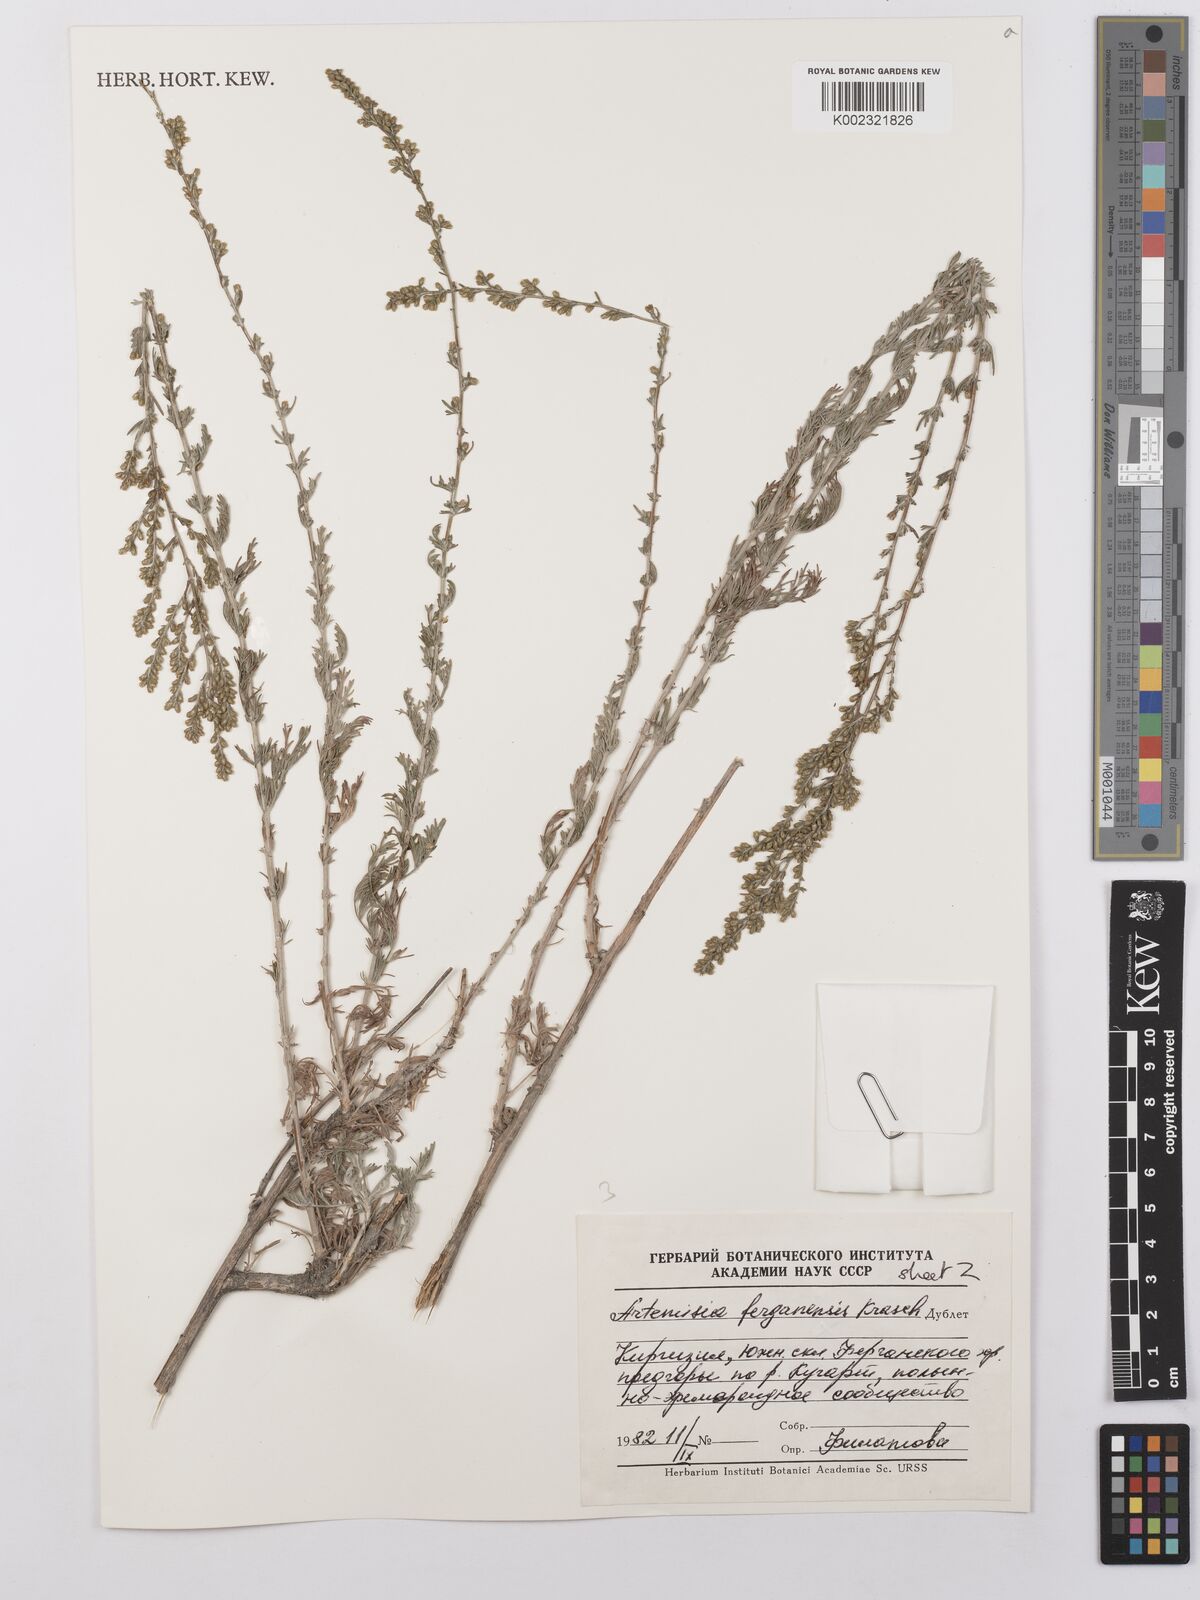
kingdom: Plantae
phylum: Tracheophyta
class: Magnoliopsida
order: Asterales
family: Asteraceae
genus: Artemisia
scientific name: Artemisia ferganensis
